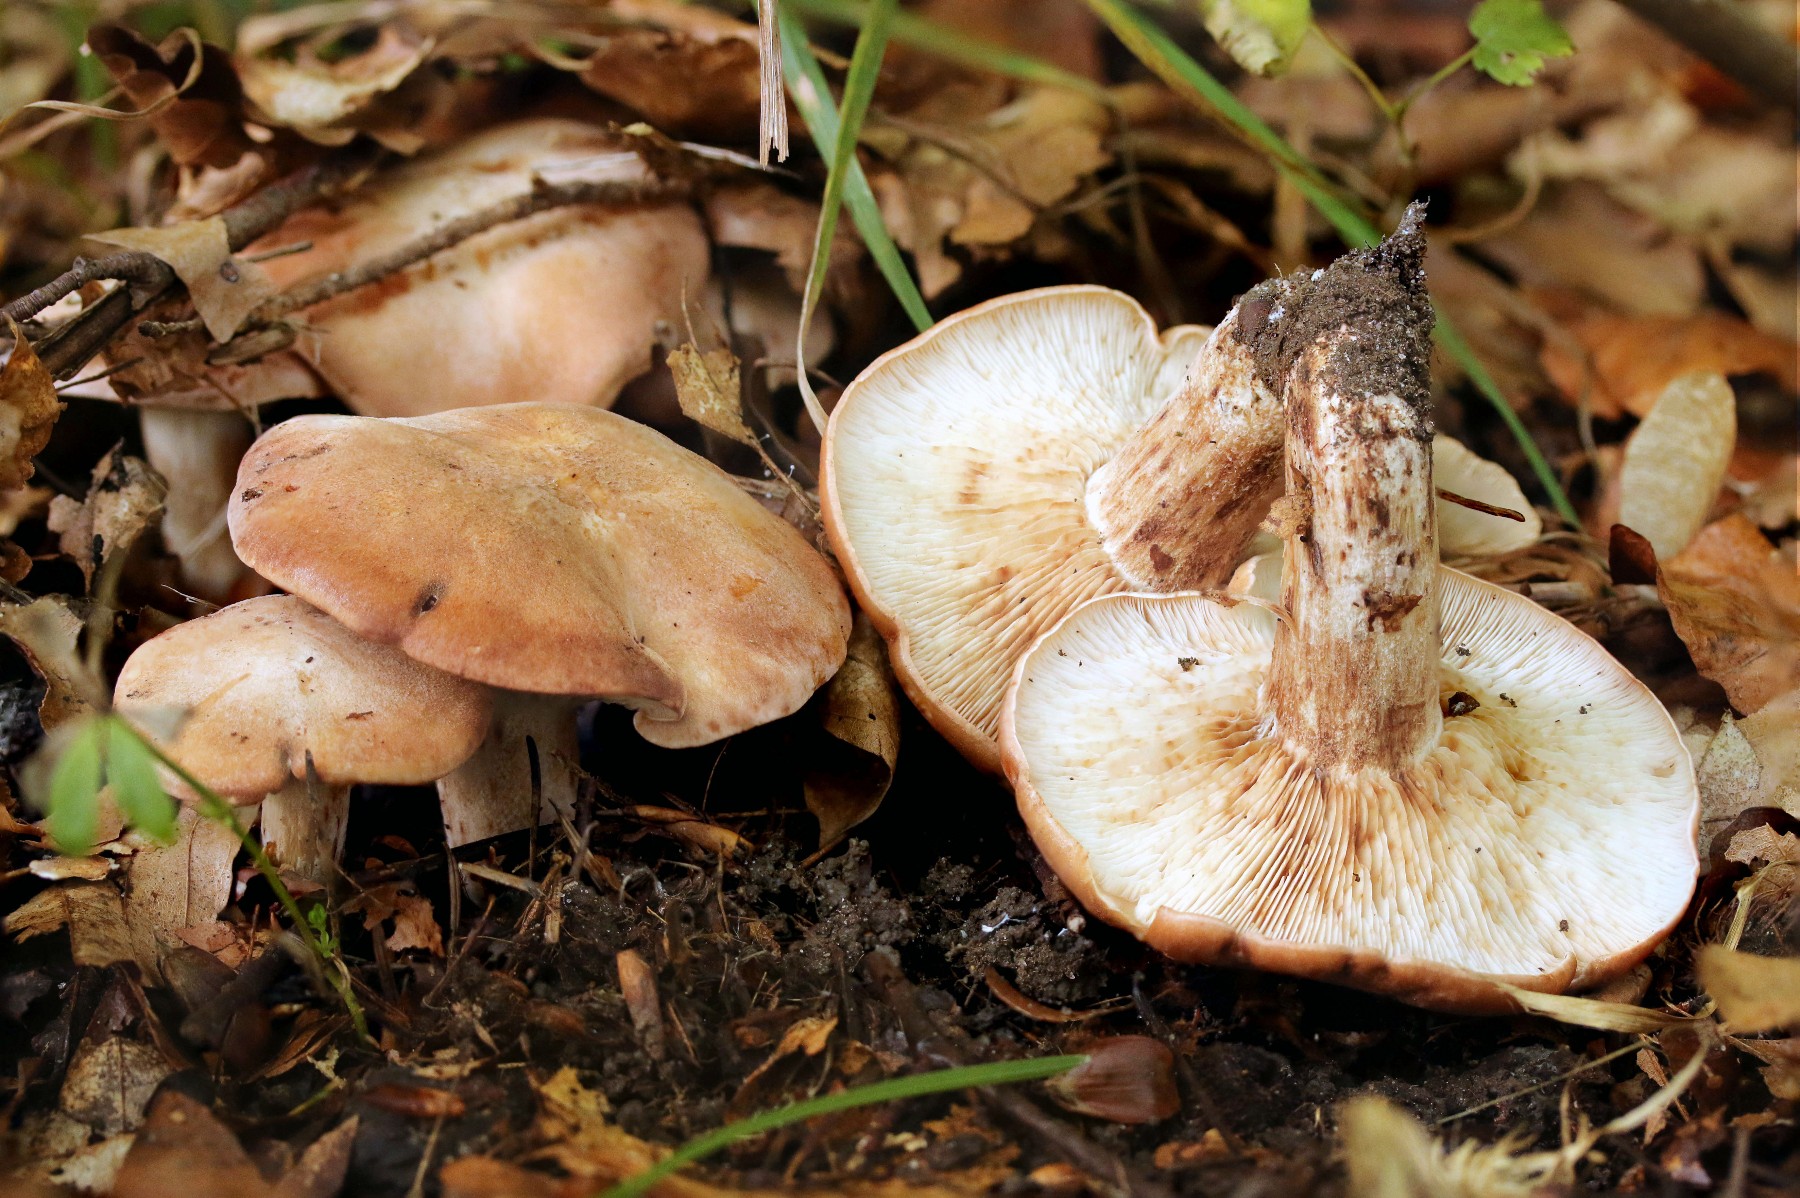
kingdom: Fungi
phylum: Basidiomycota
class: Agaricomycetes
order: Agaricales
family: Entolomataceae
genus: Clitopilus
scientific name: Clitopilus geminus
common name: kødfarvet troldhat
